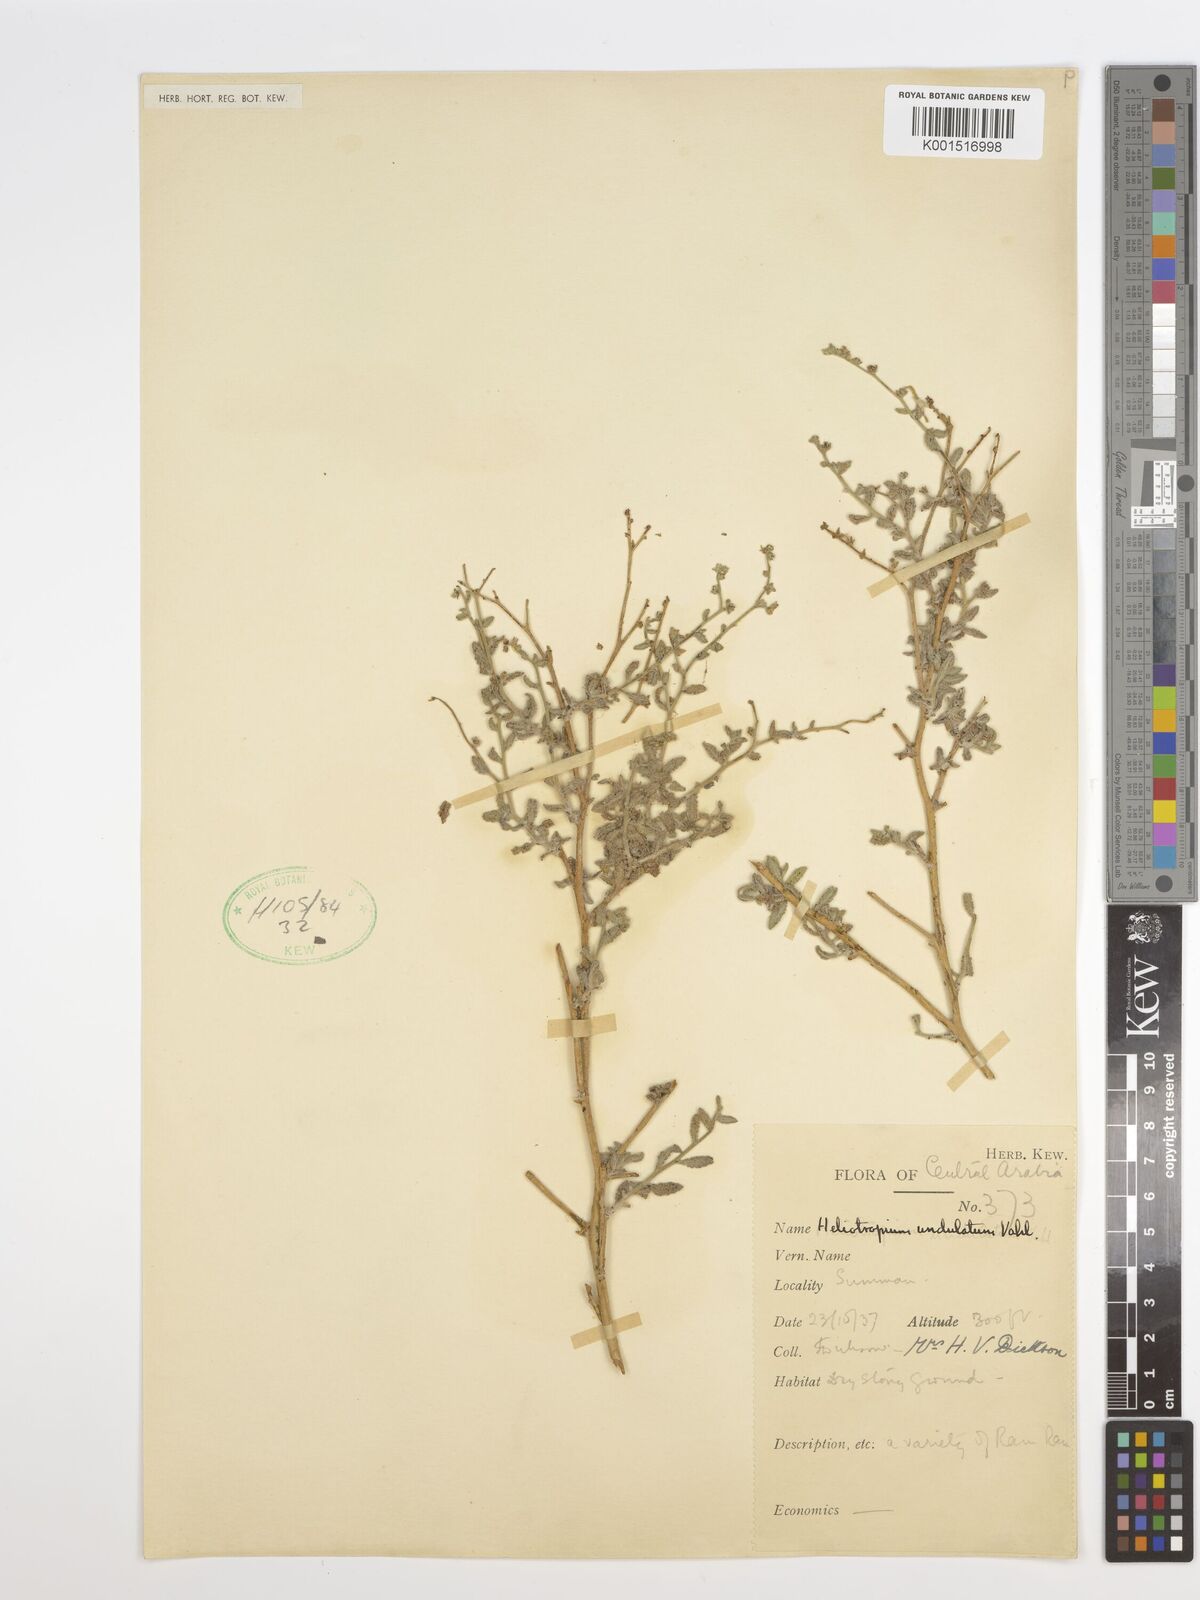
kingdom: Plantae
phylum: Tracheophyta
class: Magnoliopsida
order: Boraginales
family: Heliotropiaceae
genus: Heliotropium
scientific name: Heliotropium
